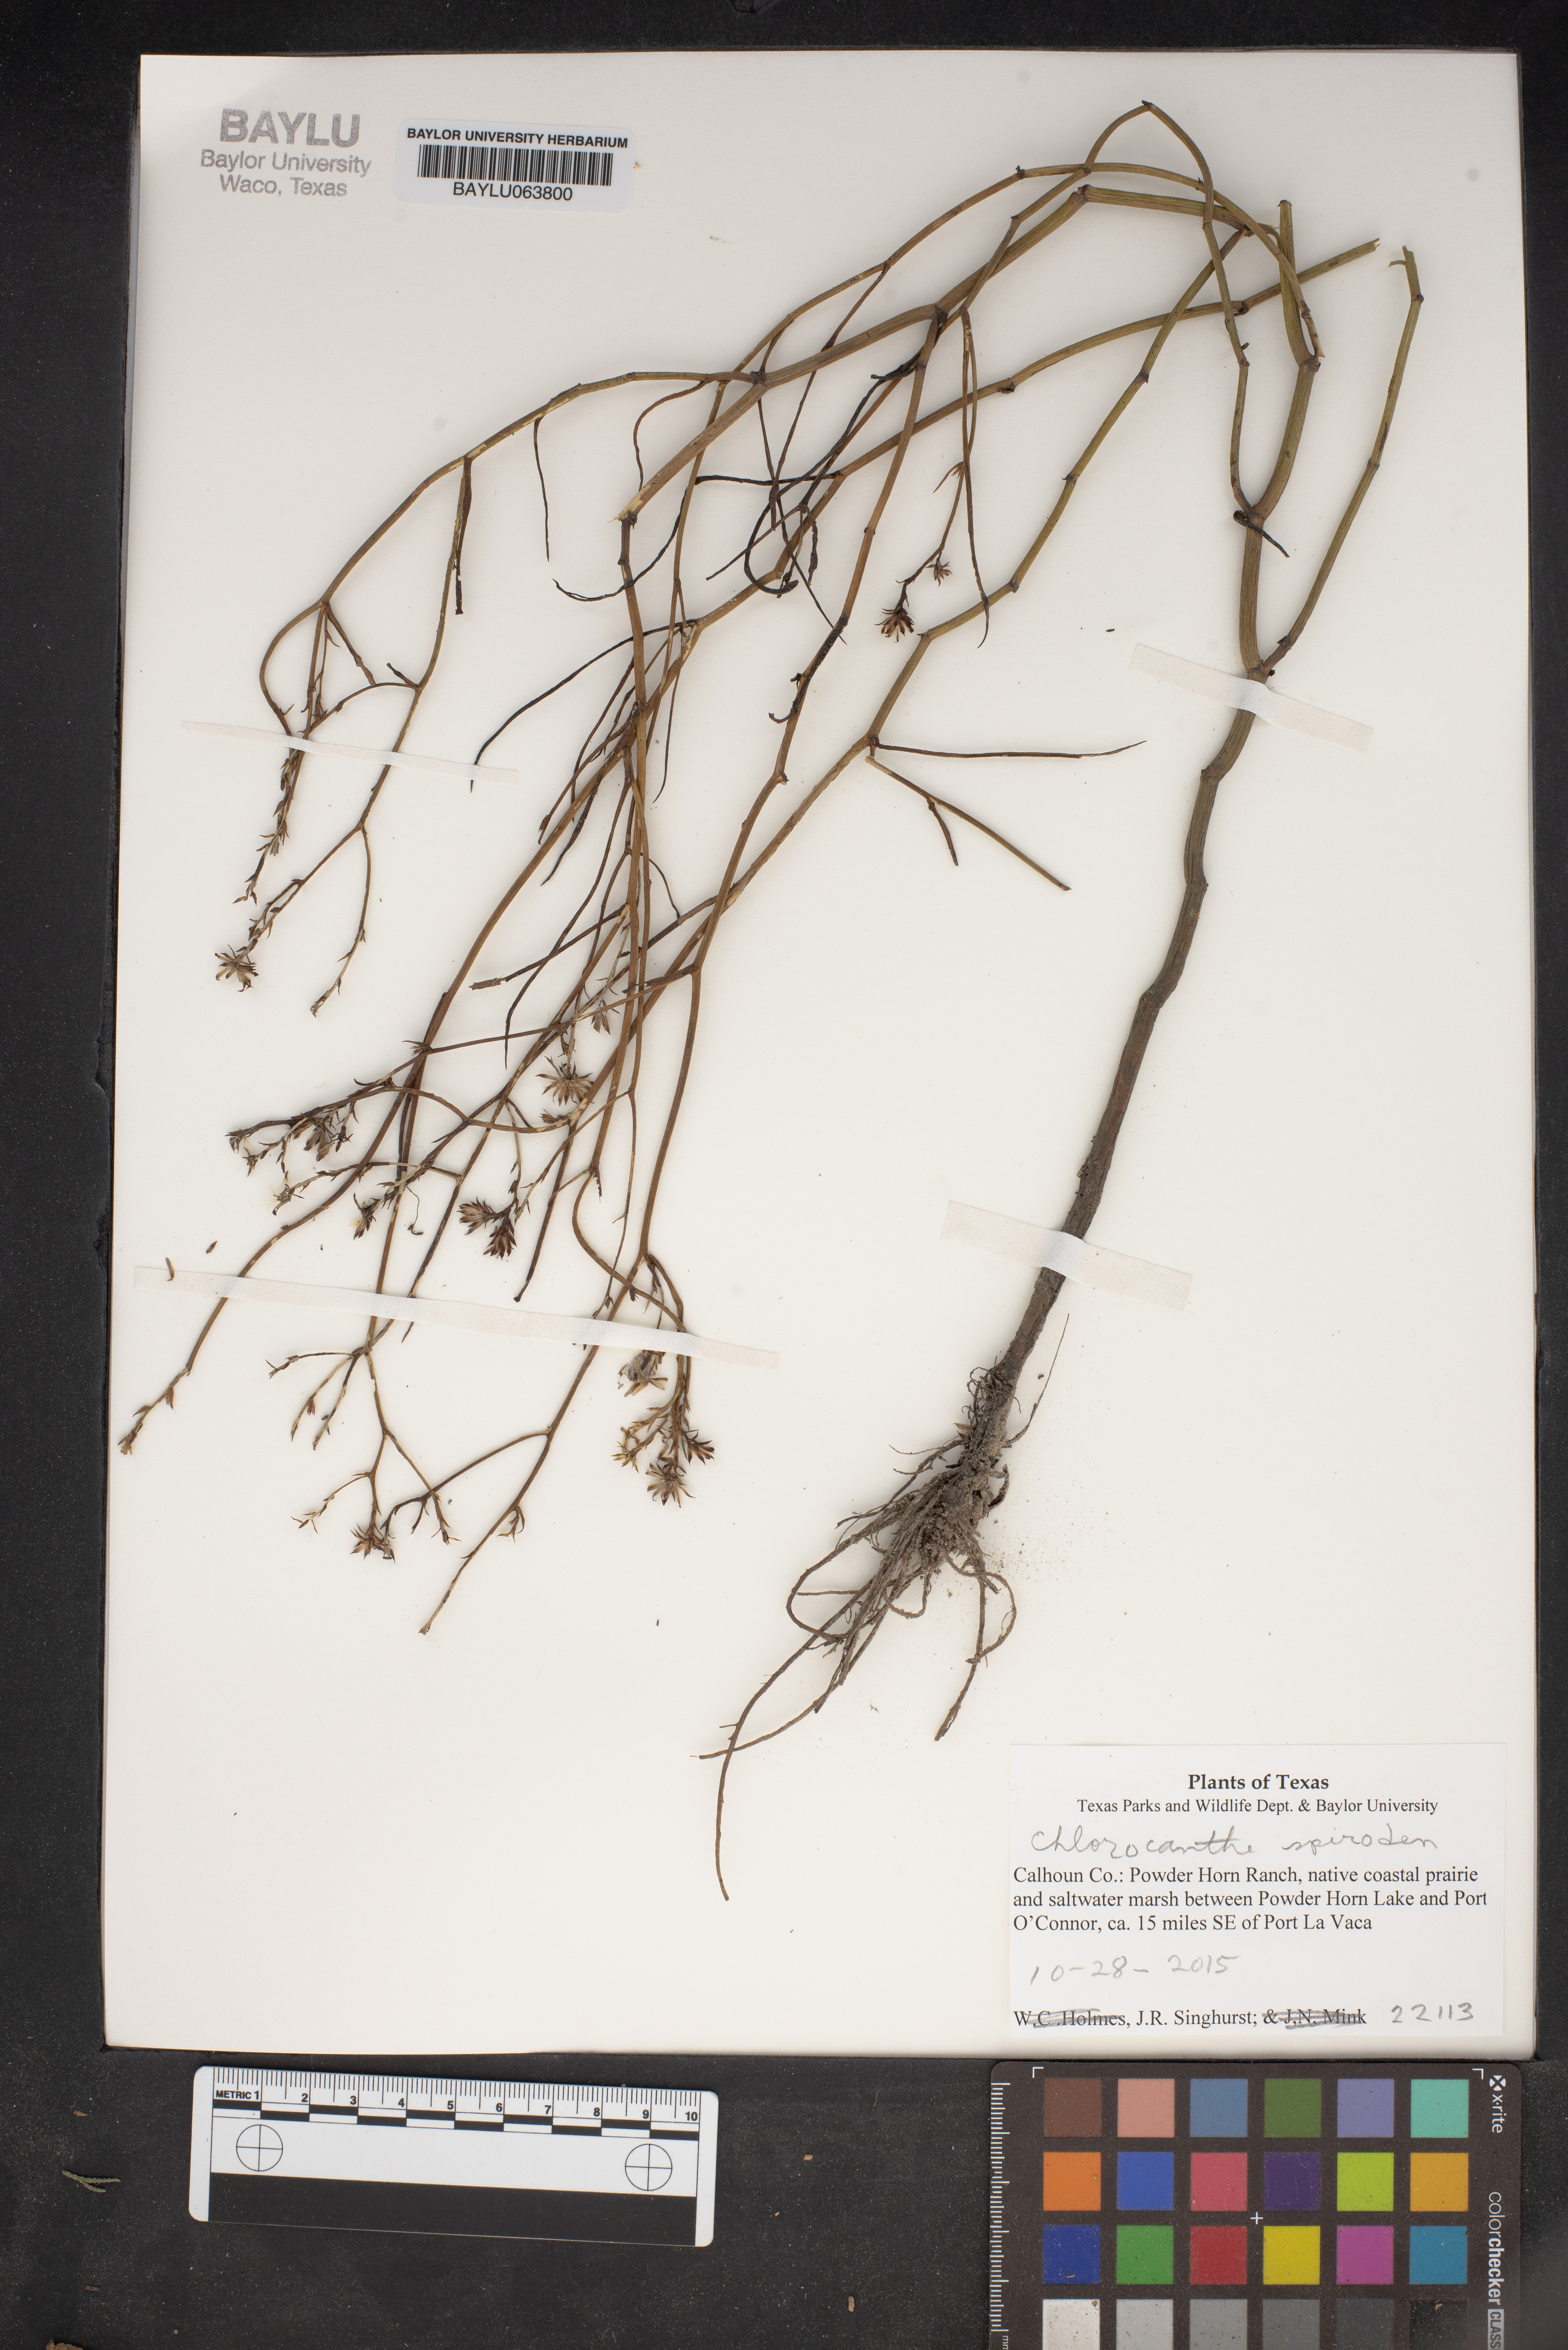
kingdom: Plantae
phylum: Tracheophyta
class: Magnoliopsida
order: Asterales
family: Asteraceae
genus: Chloracantha
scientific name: Chloracantha
